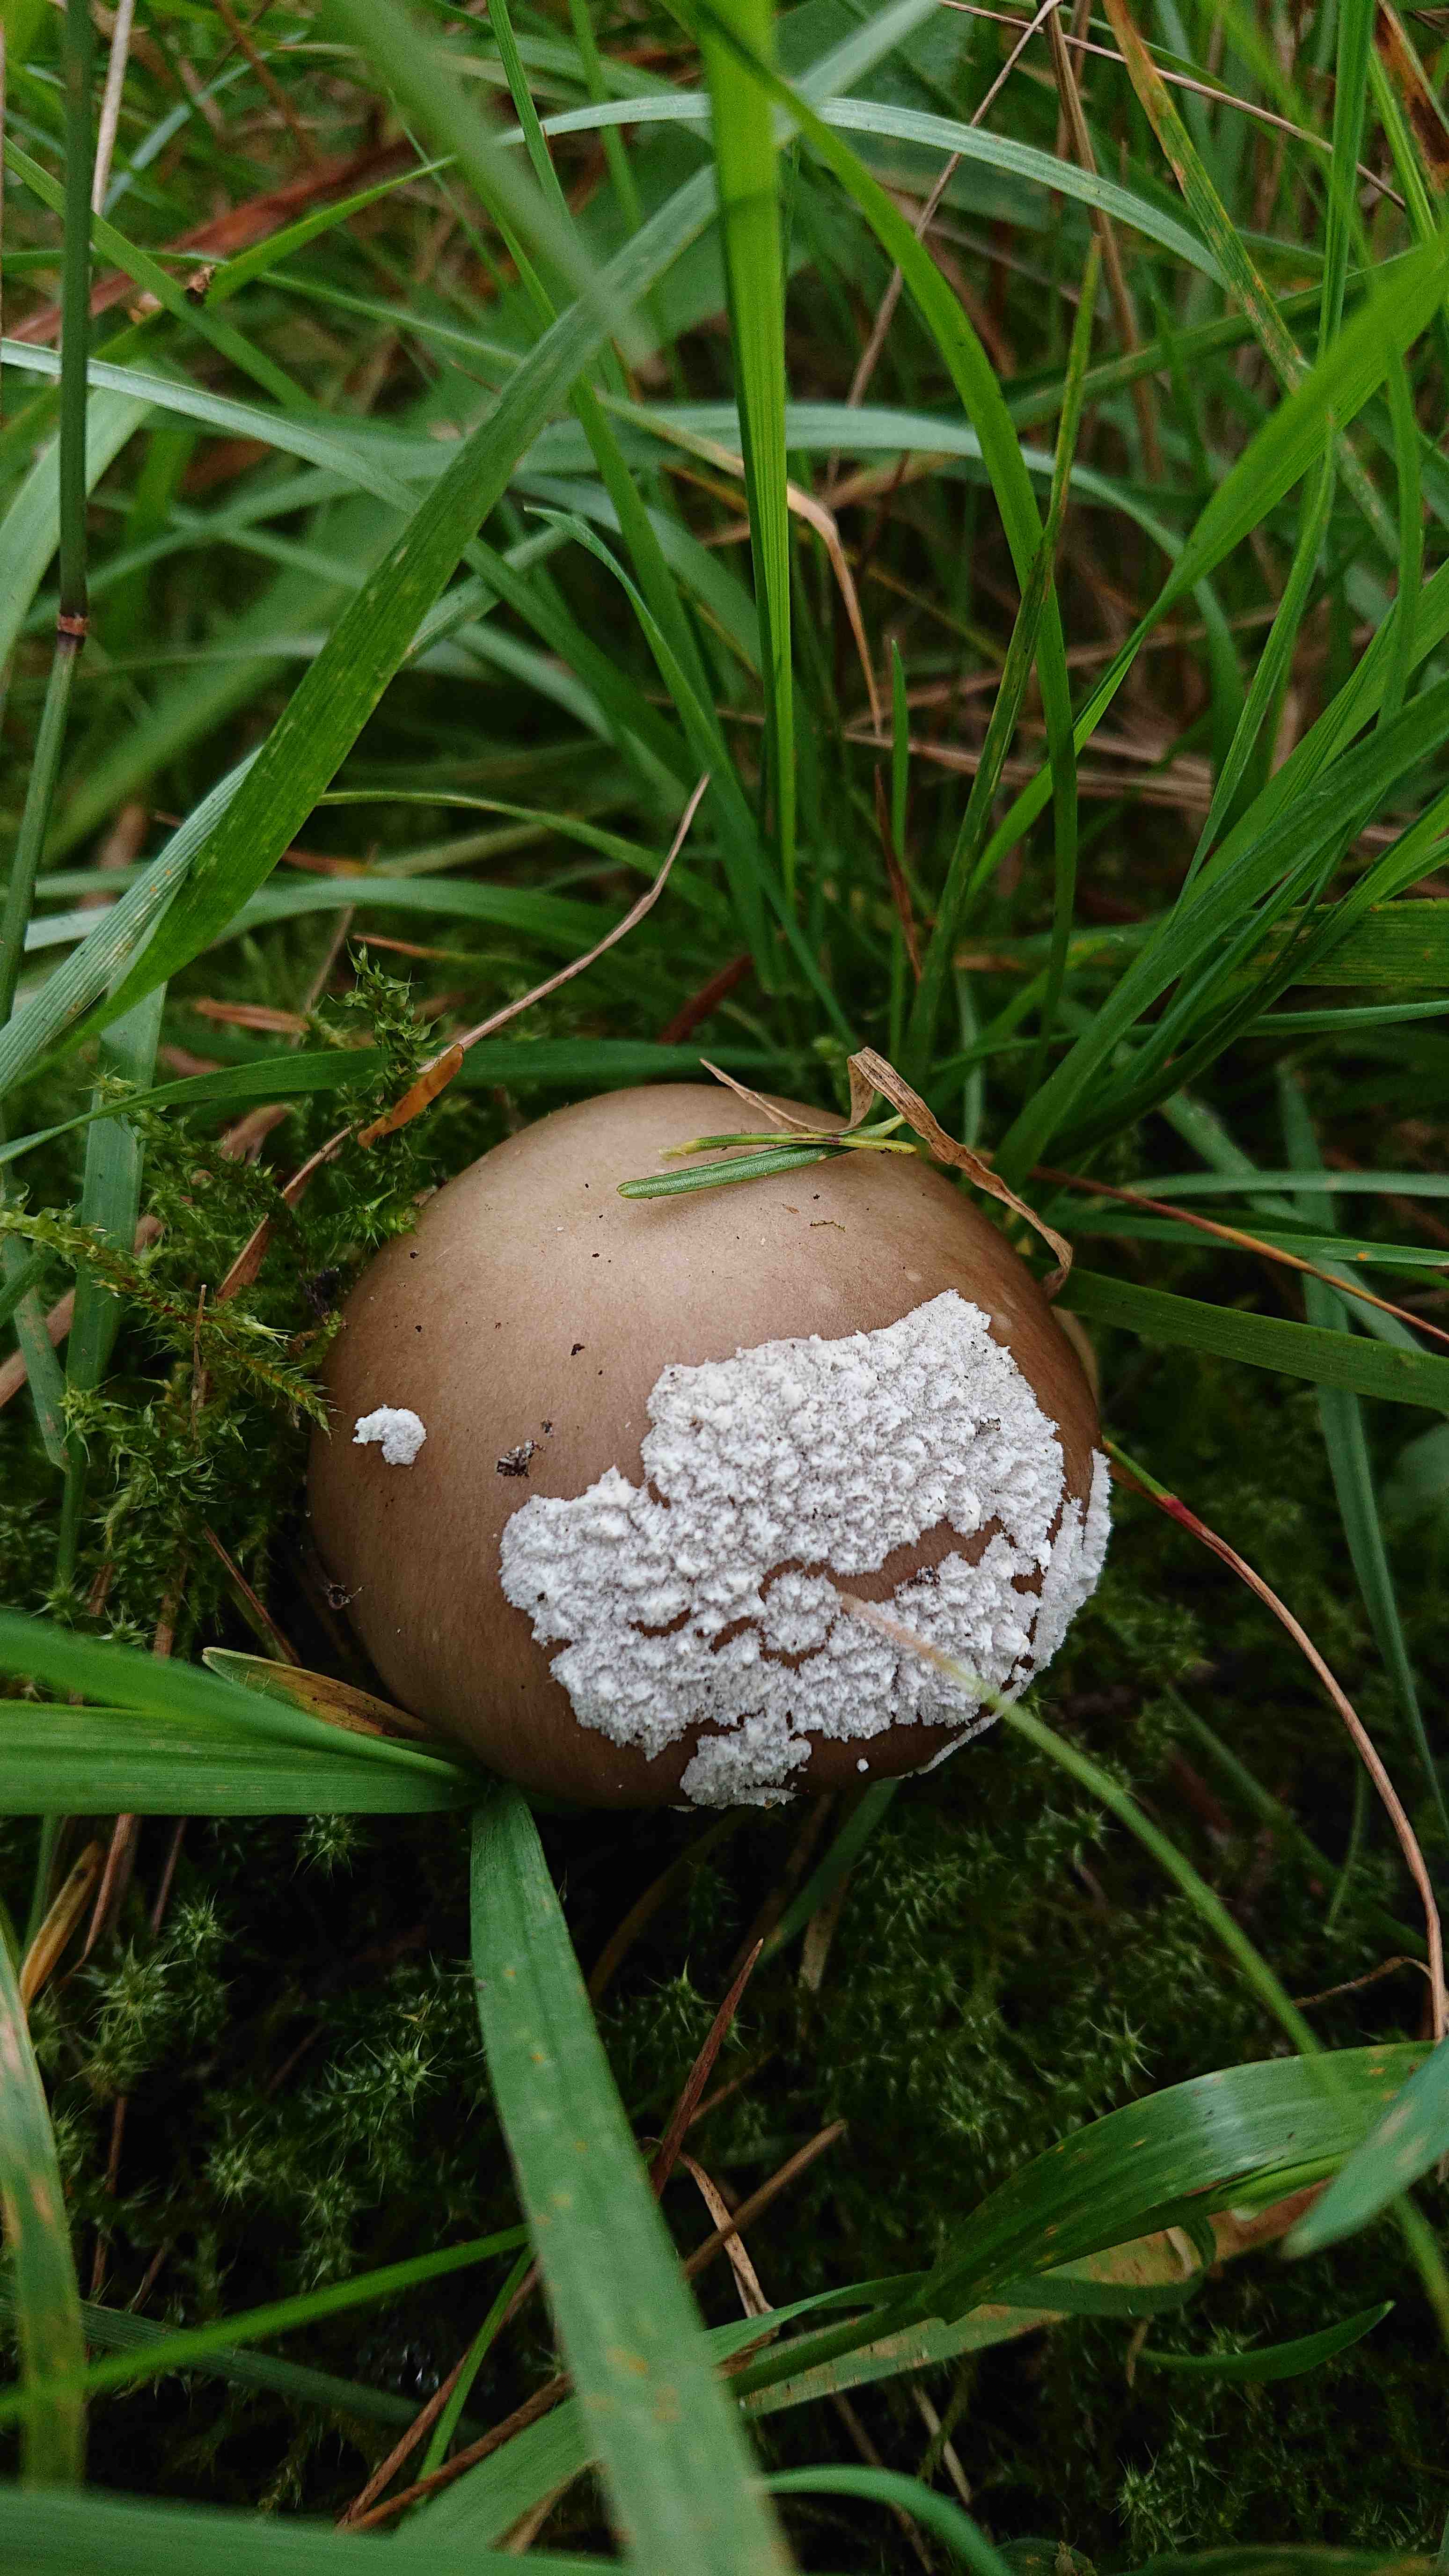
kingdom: Fungi
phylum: Basidiomycota
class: Agaricomycetes
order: Agaricales
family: Amanitaceae
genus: Amanita
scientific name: Amanita
